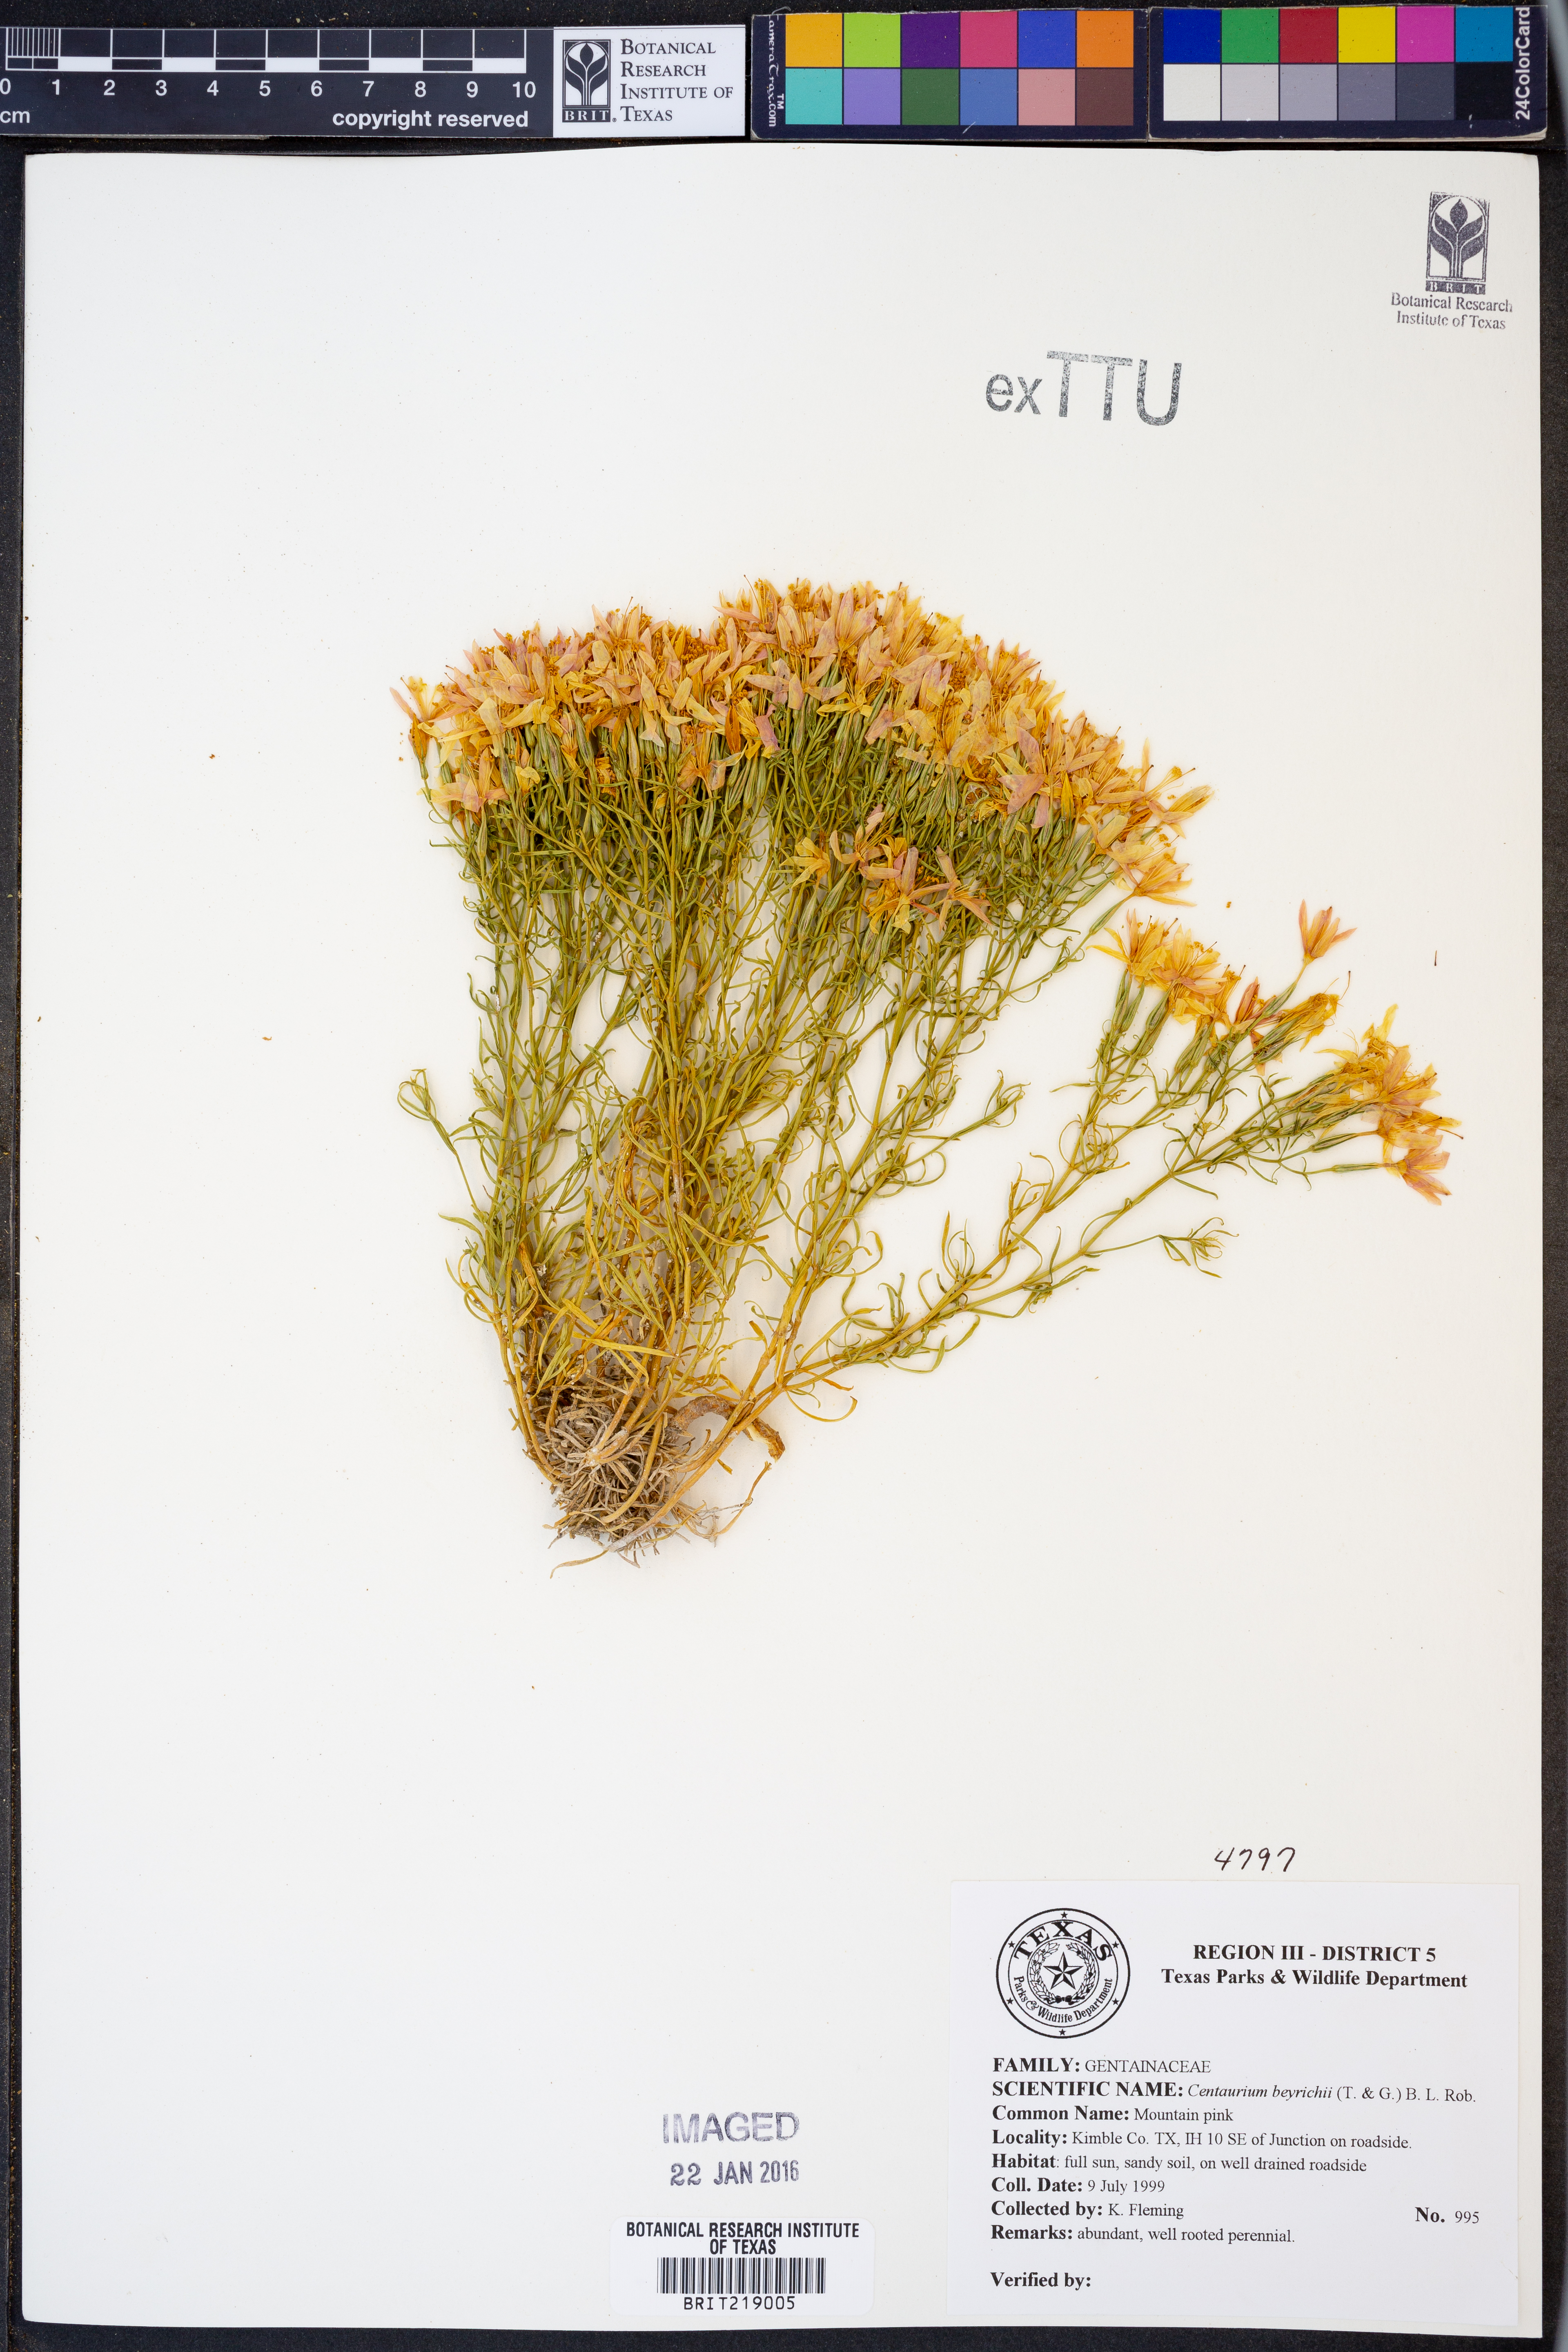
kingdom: Plantae
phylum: Tracheophyta
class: Magnoliopsida
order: Gentianales
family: Gentianaceae
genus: Zeltnera
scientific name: Zeltnera beyrichii
